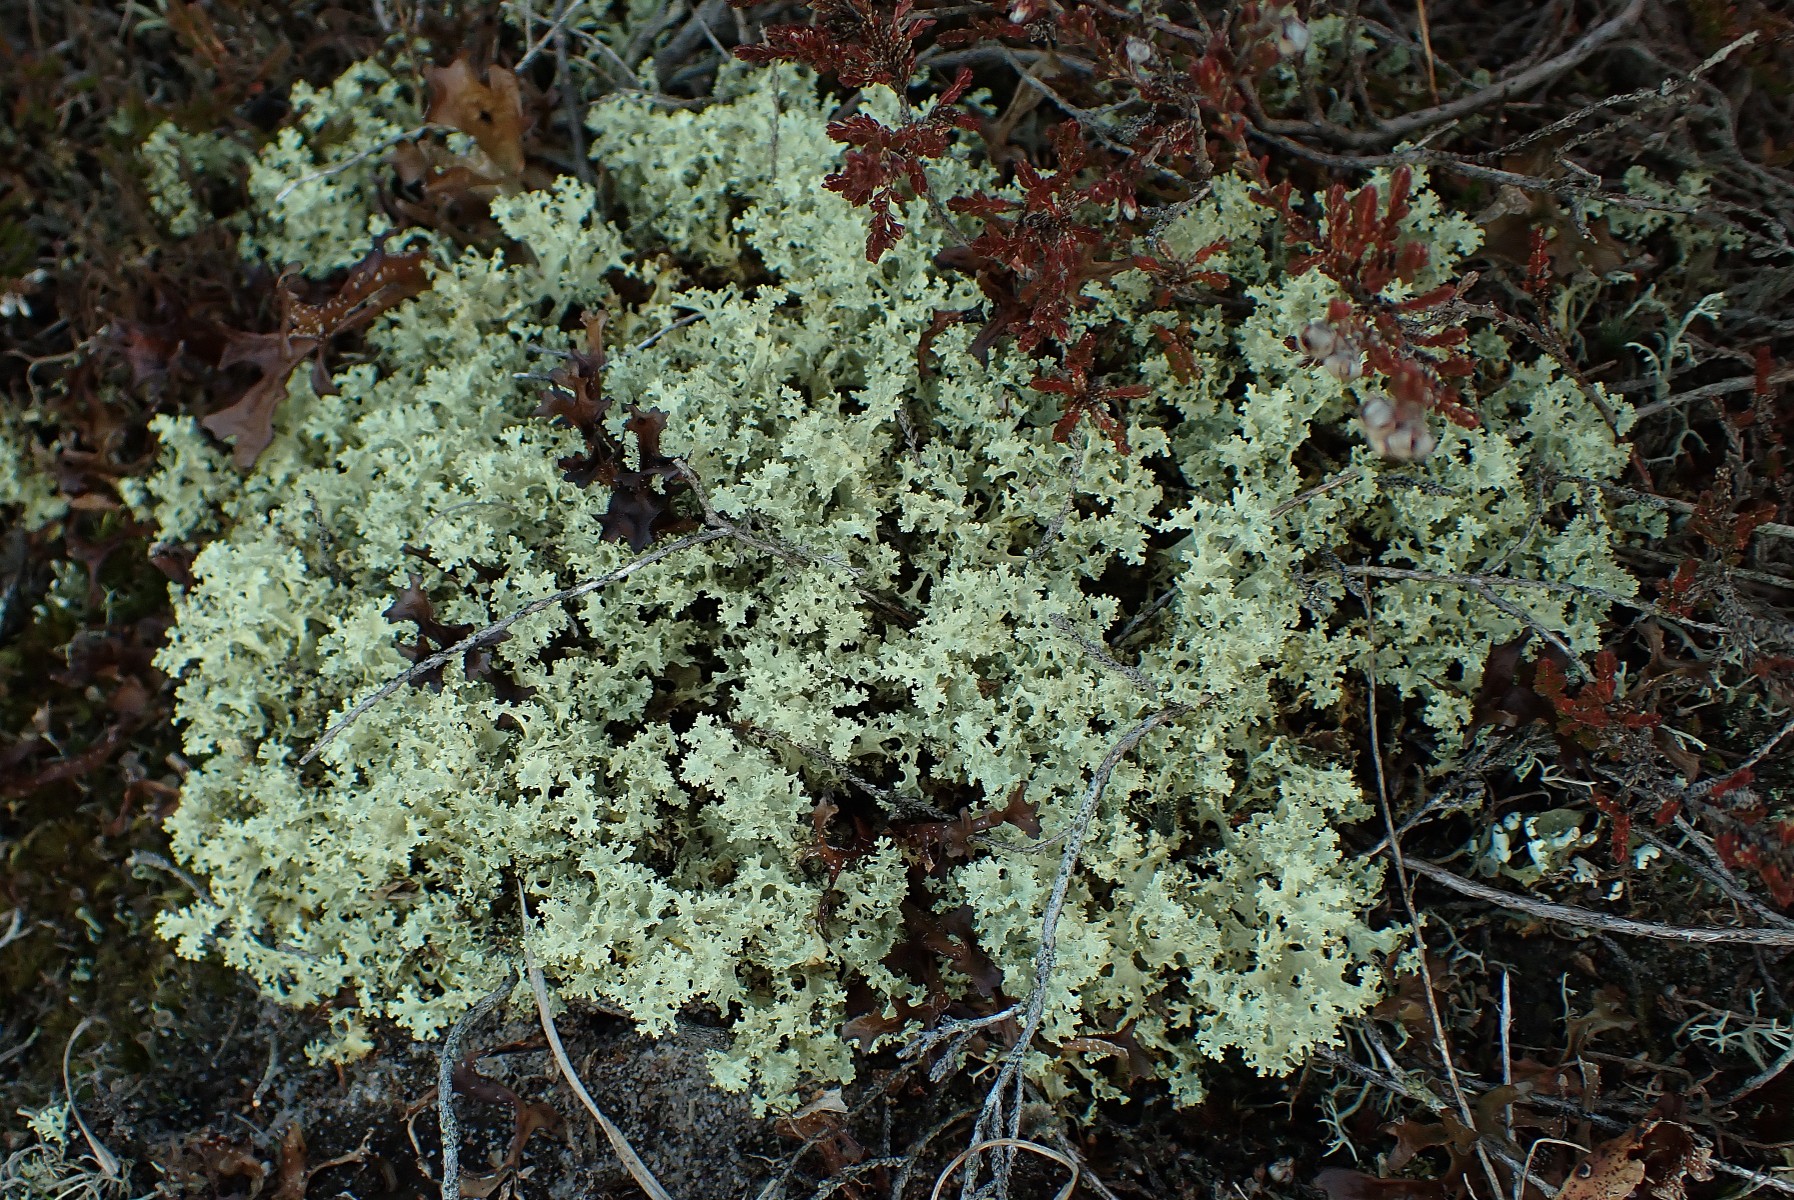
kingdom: Fungi
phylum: Ascomycota
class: Lecanoromycetes
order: Lecanorales
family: Parmeliaceae
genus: Nephromopsis
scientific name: Nephromopsis nivalis
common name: sne-kruslav
